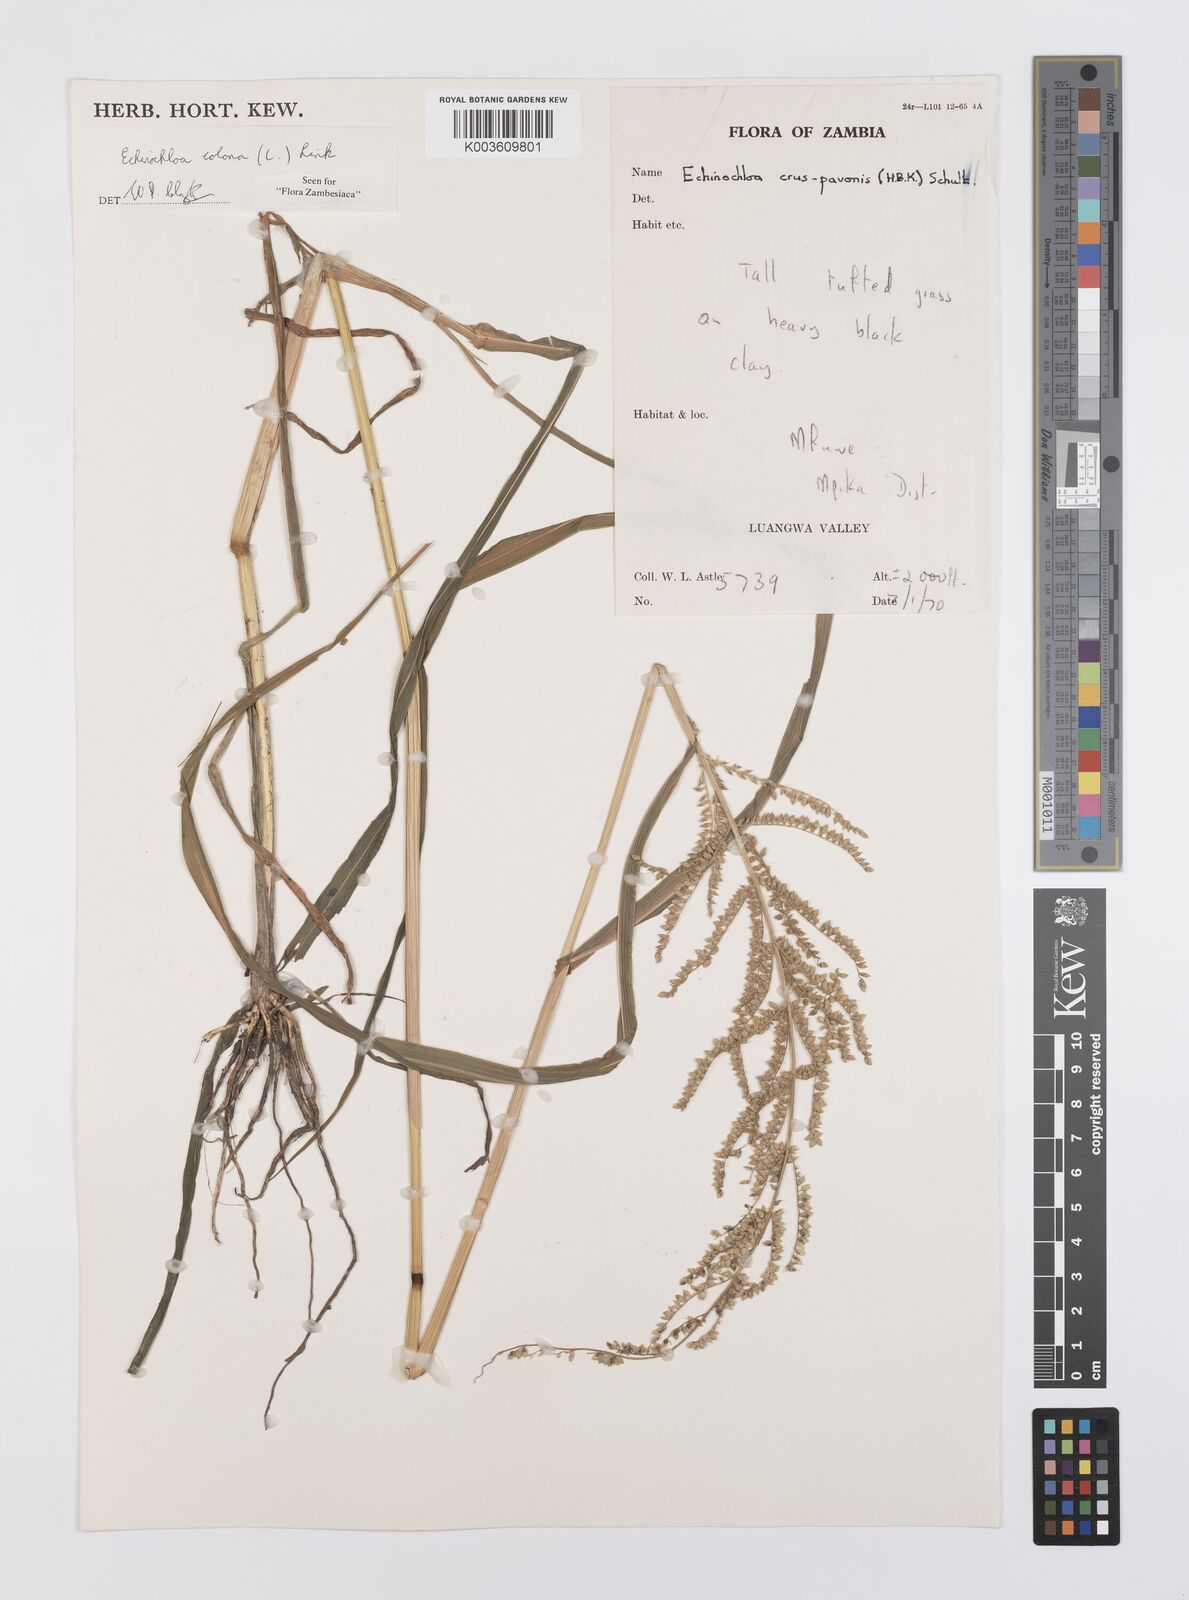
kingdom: Plantae
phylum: Tracheophyta
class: Liliopsida
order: Poales
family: Poaceae
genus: Echinochloa
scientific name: Echinochloa colonum
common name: Jungle rice
